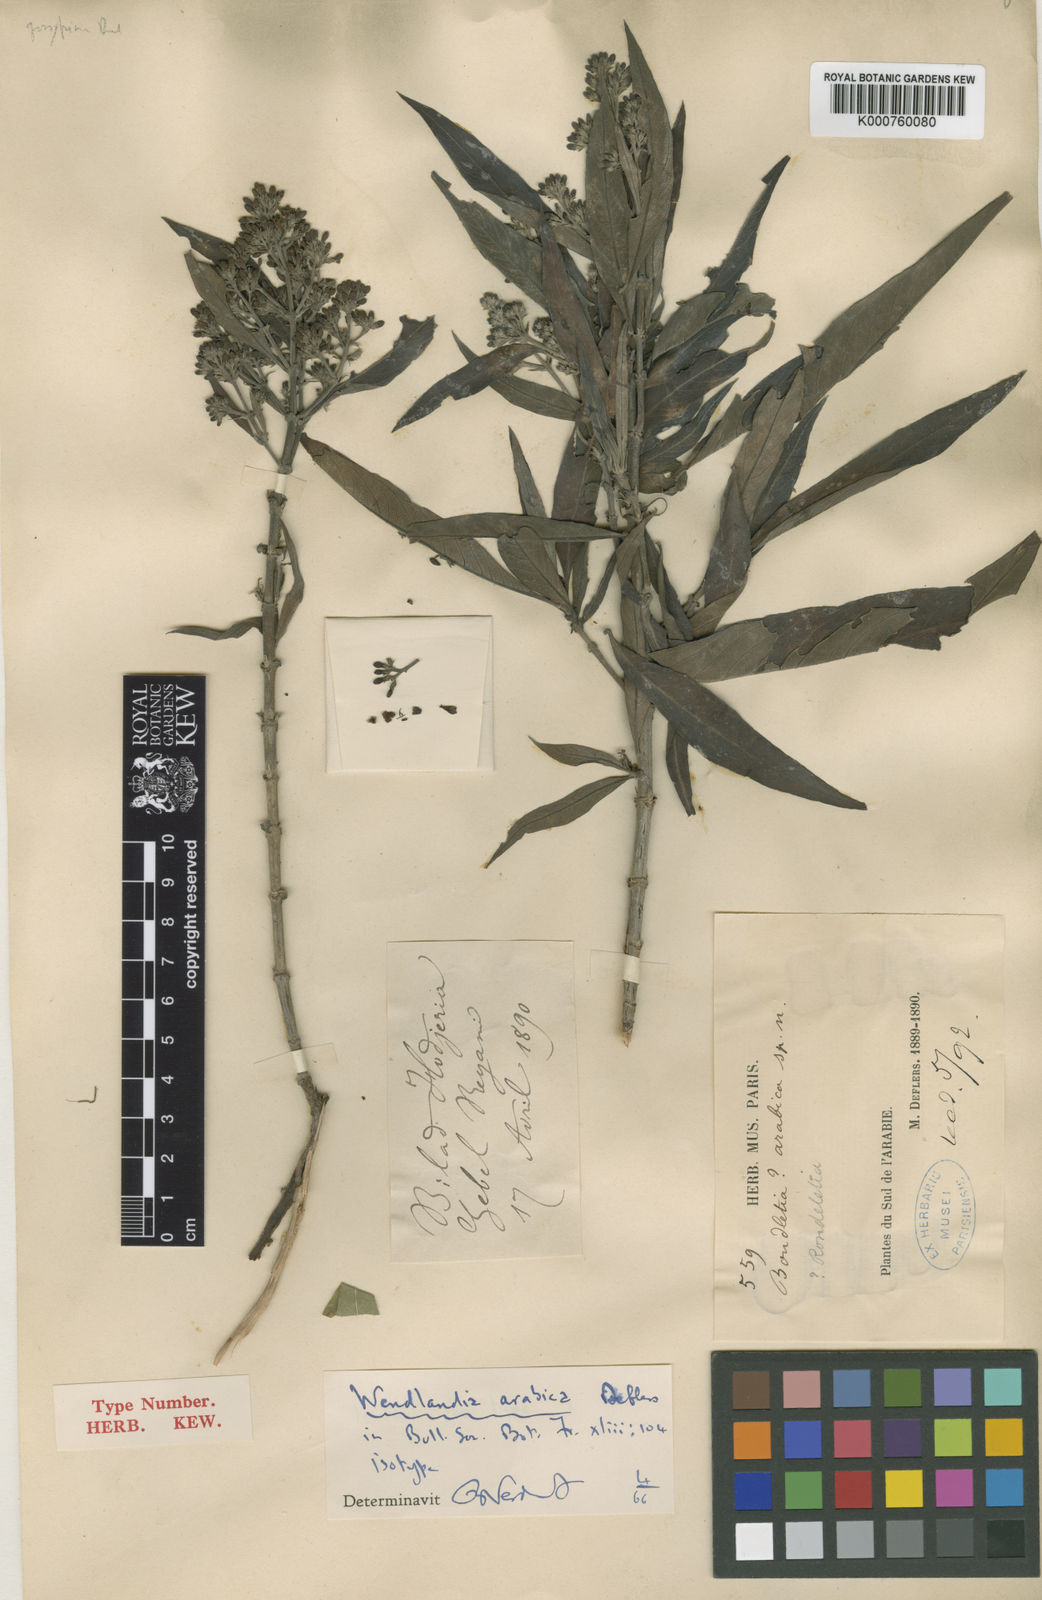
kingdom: Plantae
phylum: Tracheophyta
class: Magnoliopsida
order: Gentianales
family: Rubiaceae
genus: Wendlandia
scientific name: Wendlandia arabica
